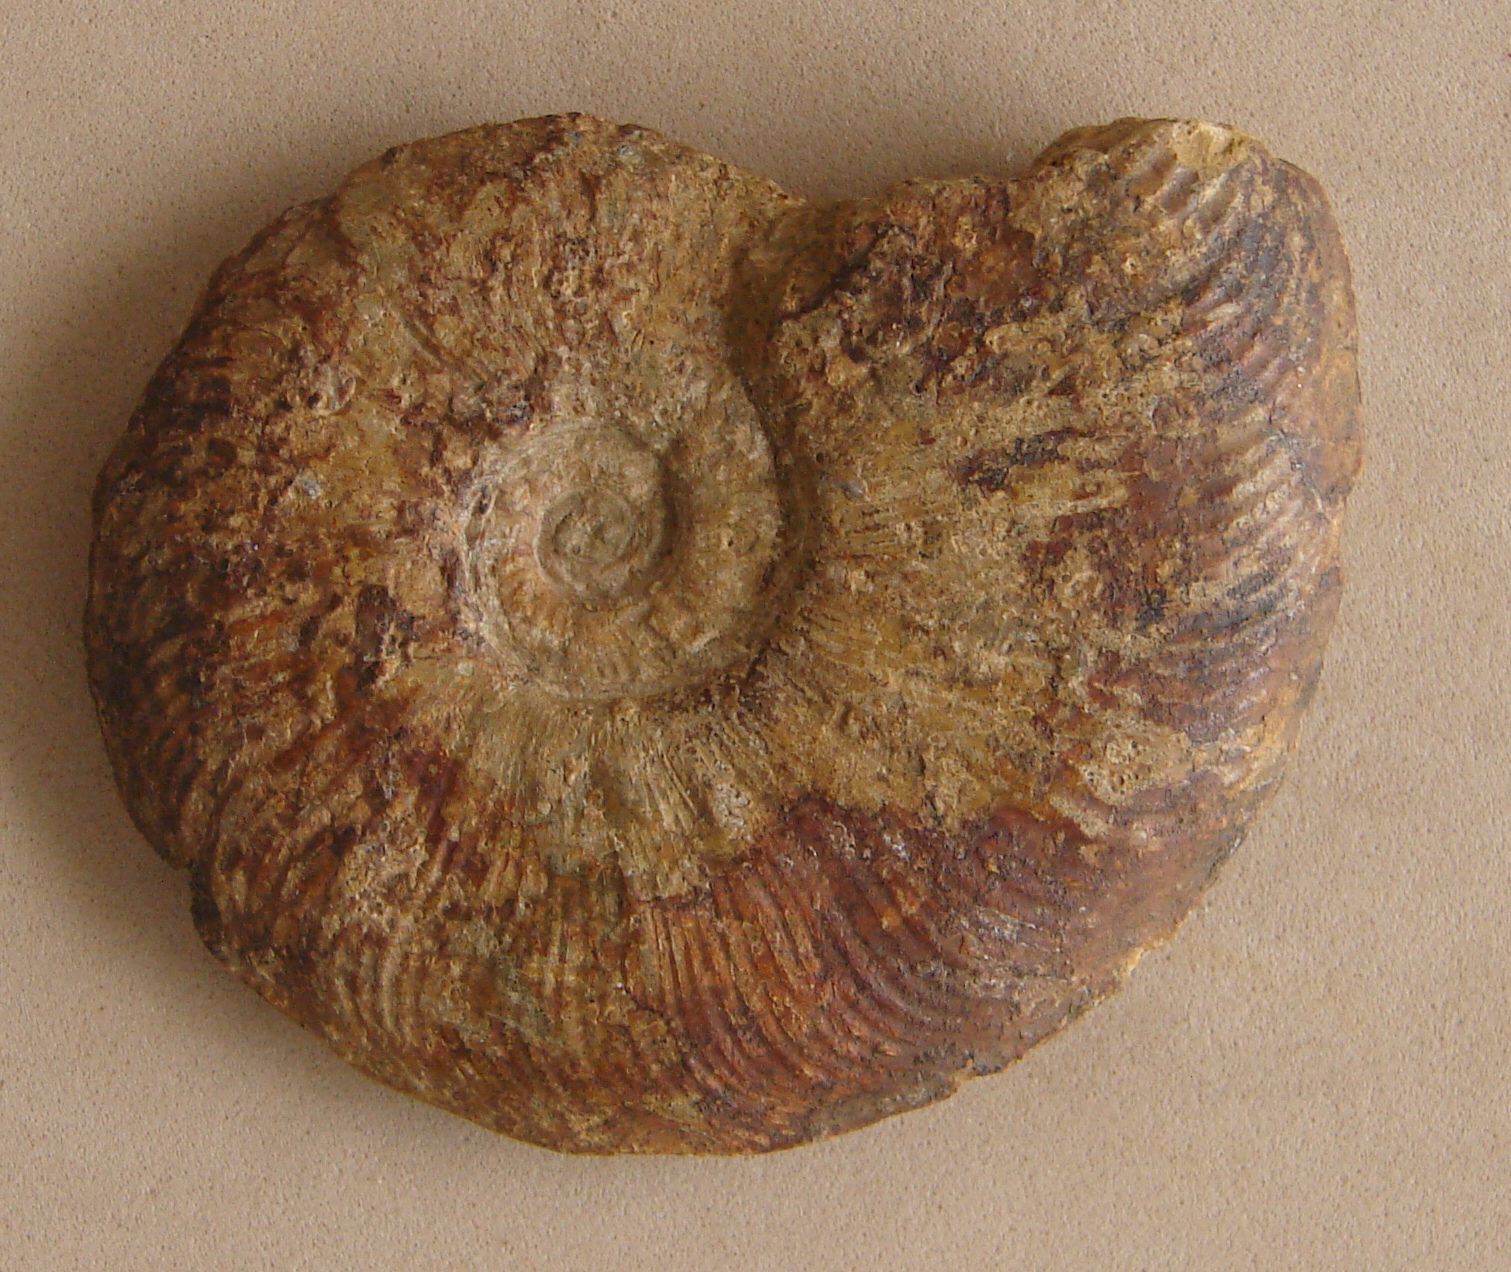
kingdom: Animalia
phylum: Mollusca
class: Cephalopoda
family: Hildoceratidae
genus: Pleydellia
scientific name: Pleydellia misera
